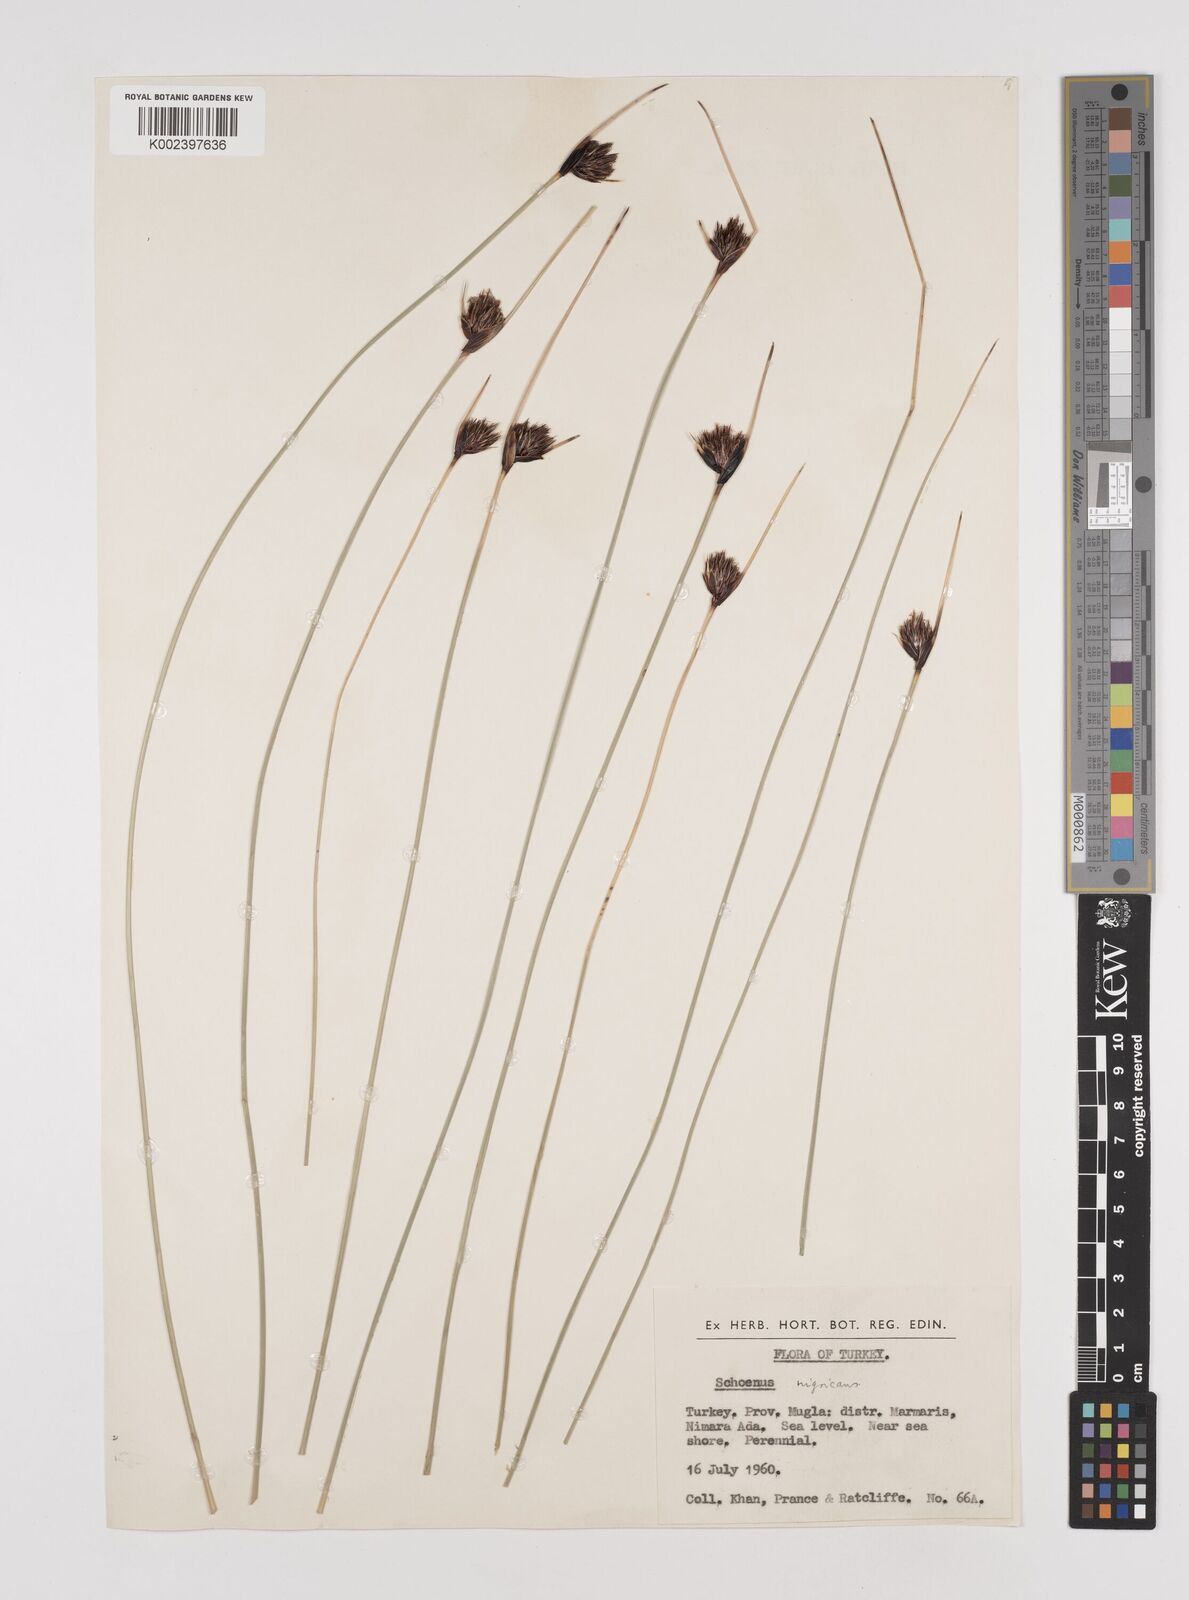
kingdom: Plantae
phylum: Tracheophyta
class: Liliopsida
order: Poales
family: Cyperaceae
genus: Schoenus
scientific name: Schoenus nigricans
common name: Black bog-rush
